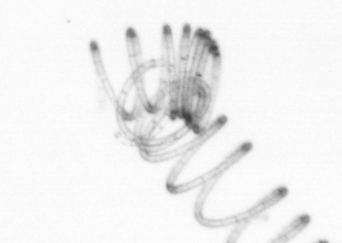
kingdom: Chromista
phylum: Ochrophyta
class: Bacillariophyceae
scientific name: Bacillariophyceae
